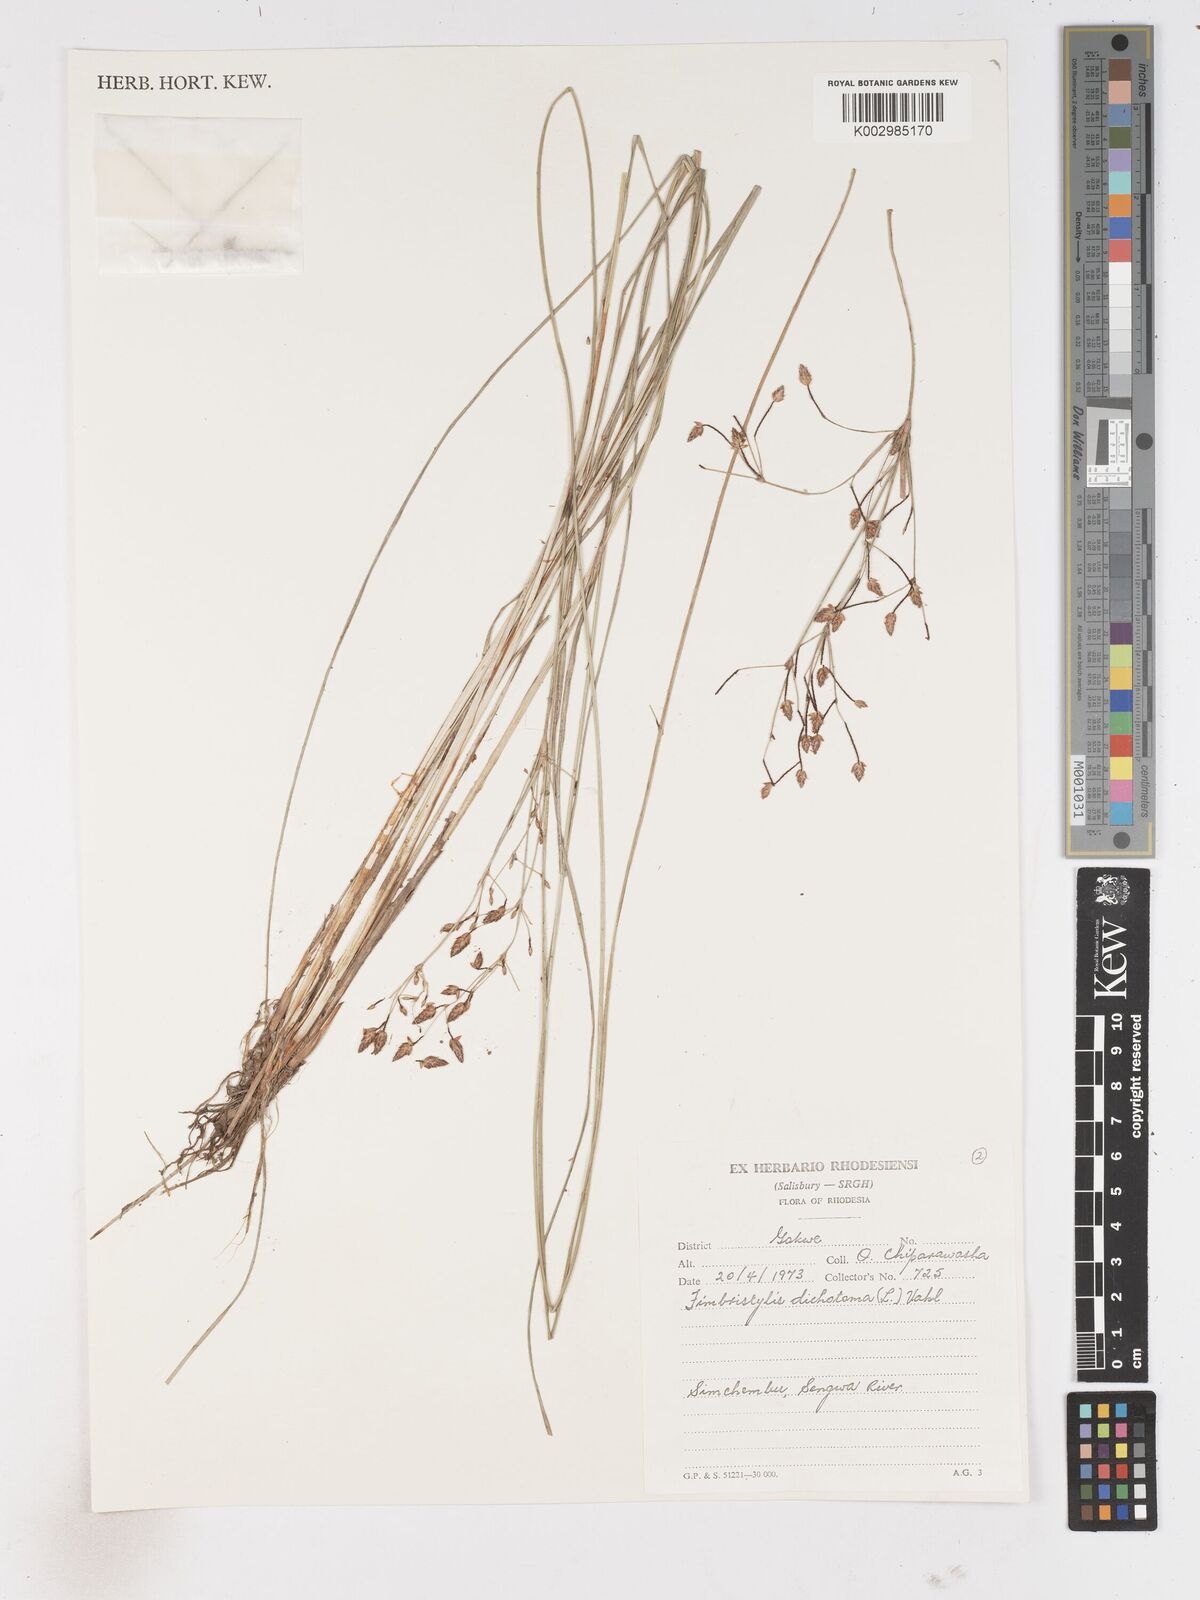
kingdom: Plantae
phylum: Tracheophyta
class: Liliopsida
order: Poales
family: Cyperaceae
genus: Fimbristylis
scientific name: Fimbristylis dichotoma
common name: Forked fimbry
